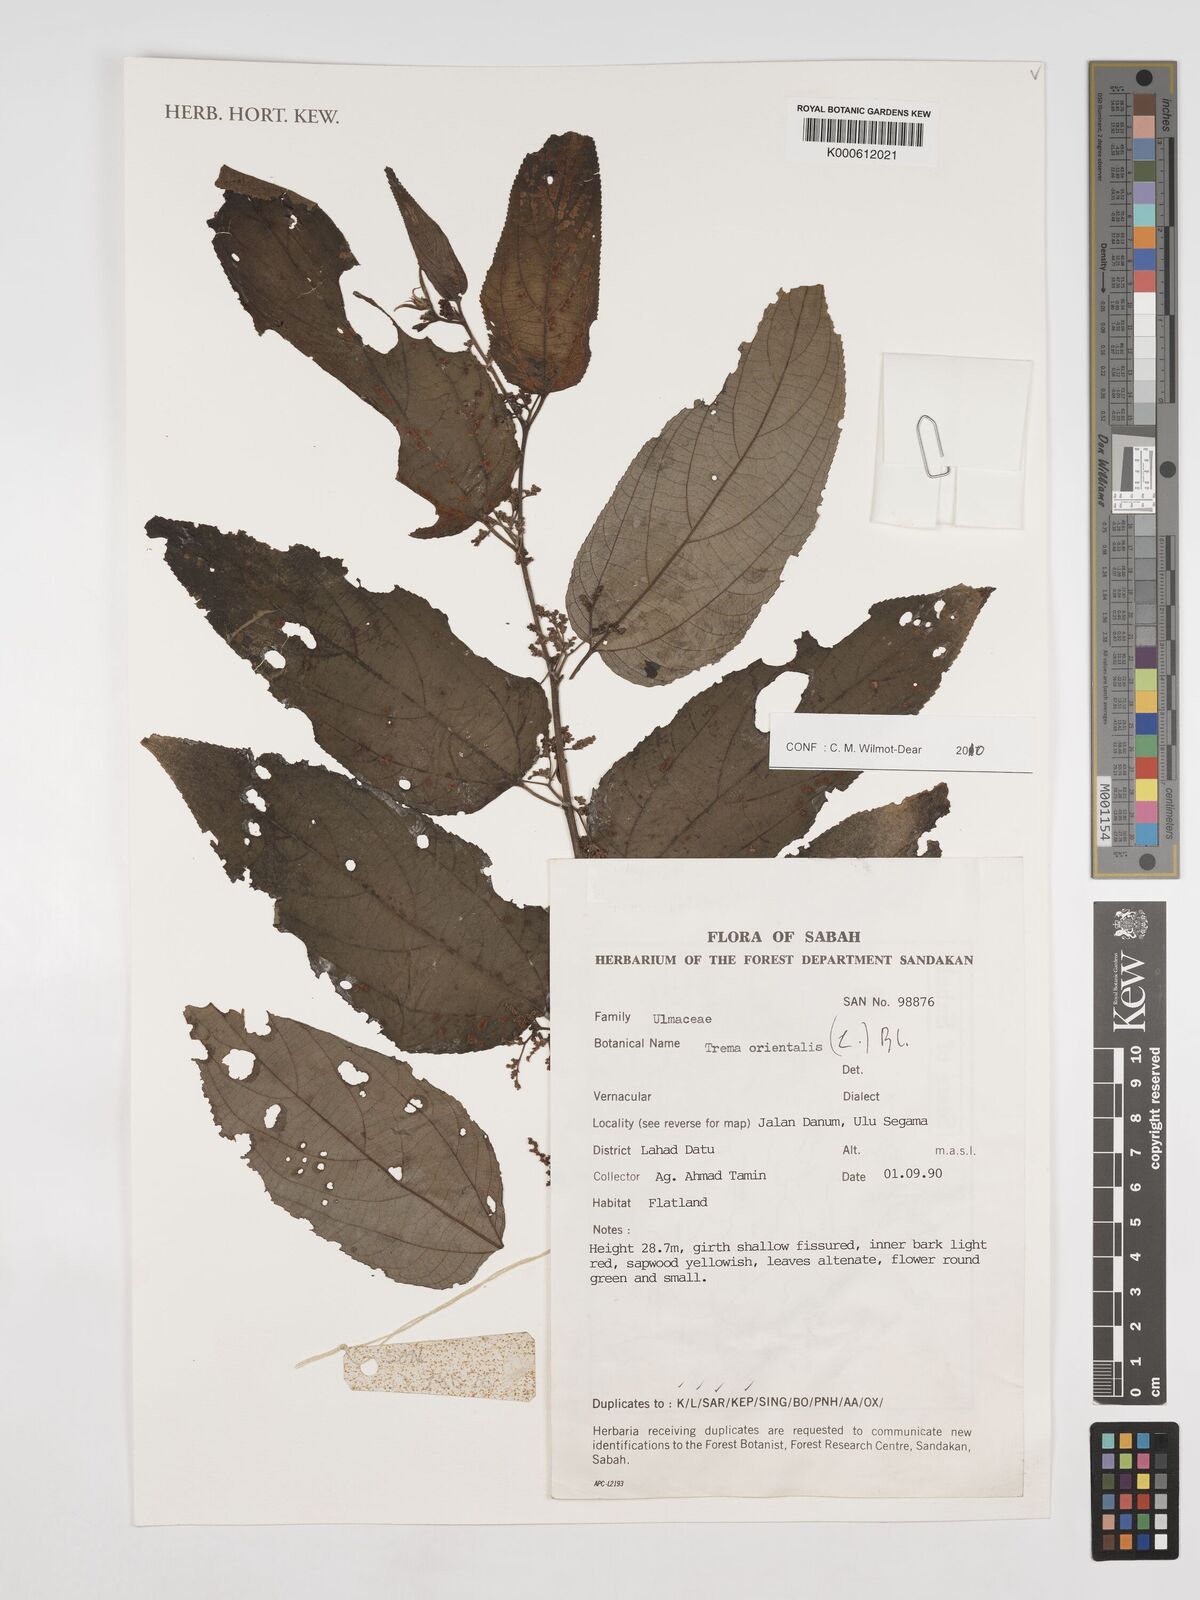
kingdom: Plantae
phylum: Tracheophyta
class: Magnoliopsida
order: Rosales
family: Cannabaceae
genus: Trema
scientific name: Trema
